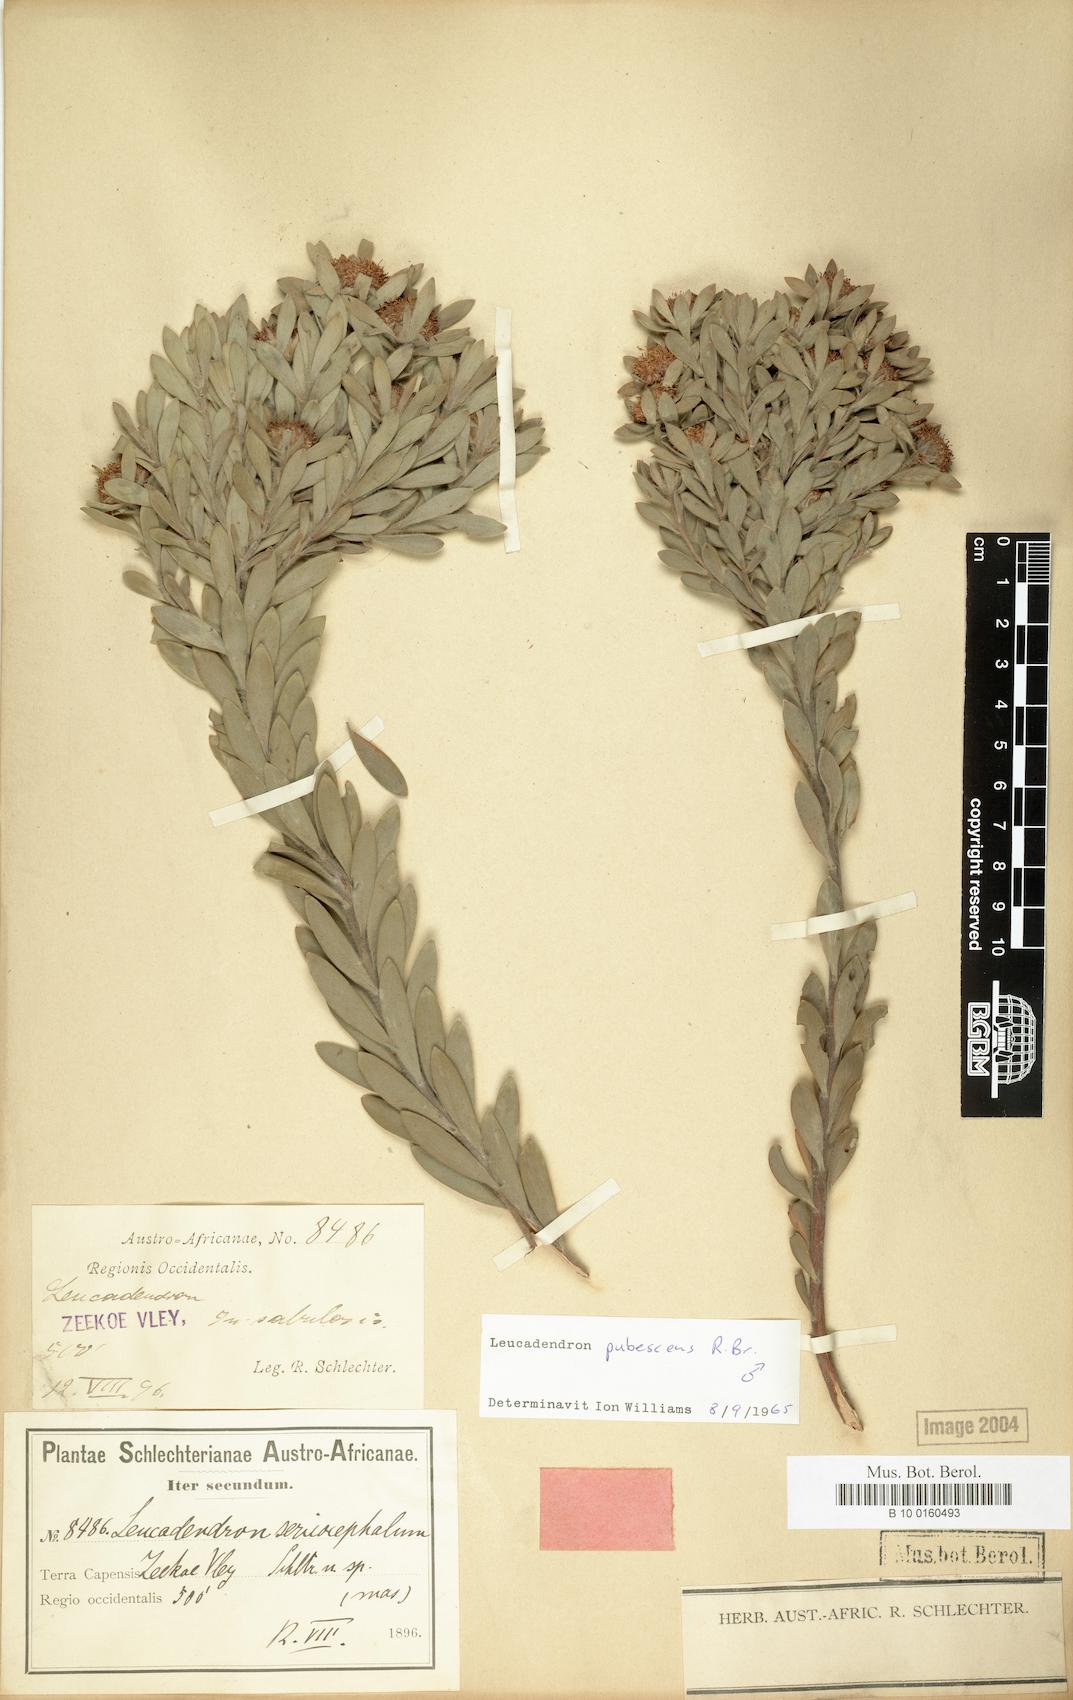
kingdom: Plantae
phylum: Tracheophyta
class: Magnoliopsida
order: Proteales
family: Proteaceae
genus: Leucadendron
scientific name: Leucadendron pubescens
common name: Grey conebush
